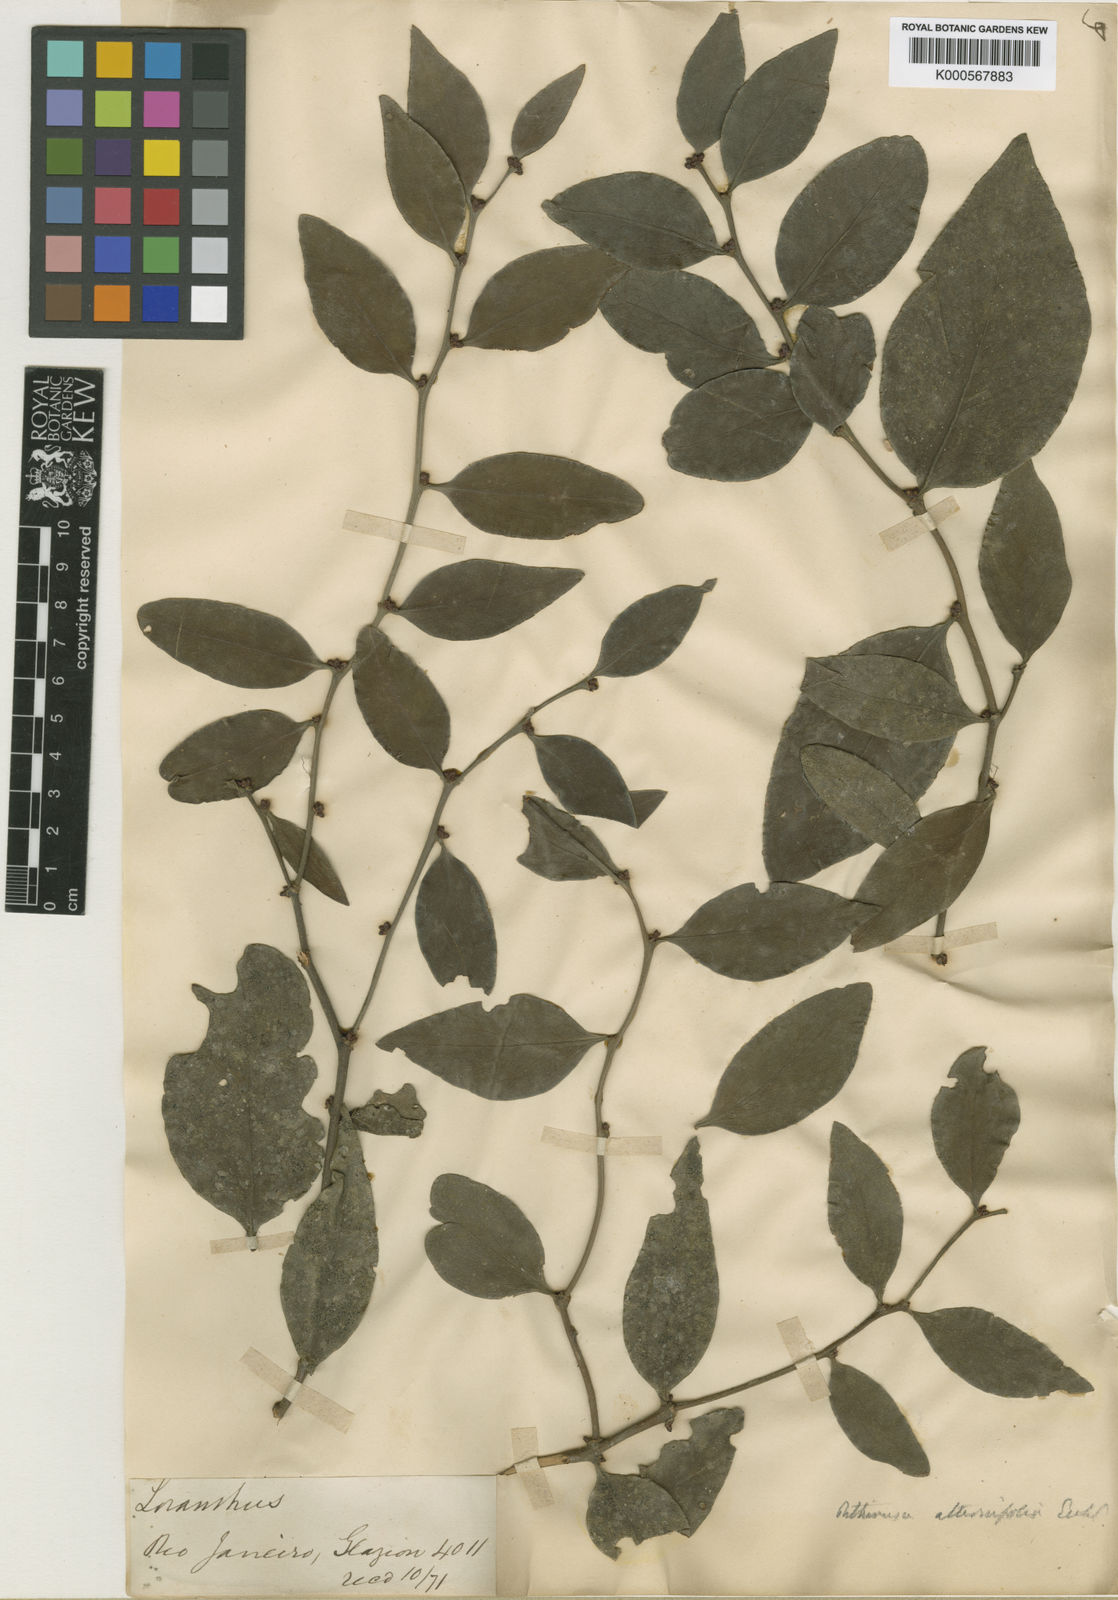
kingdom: Plantae
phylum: Tracheophyta
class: Magnoliopsida
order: Santalales
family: Loranthaceae
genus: Cladocolea
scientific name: Cladocolea alternifolia
